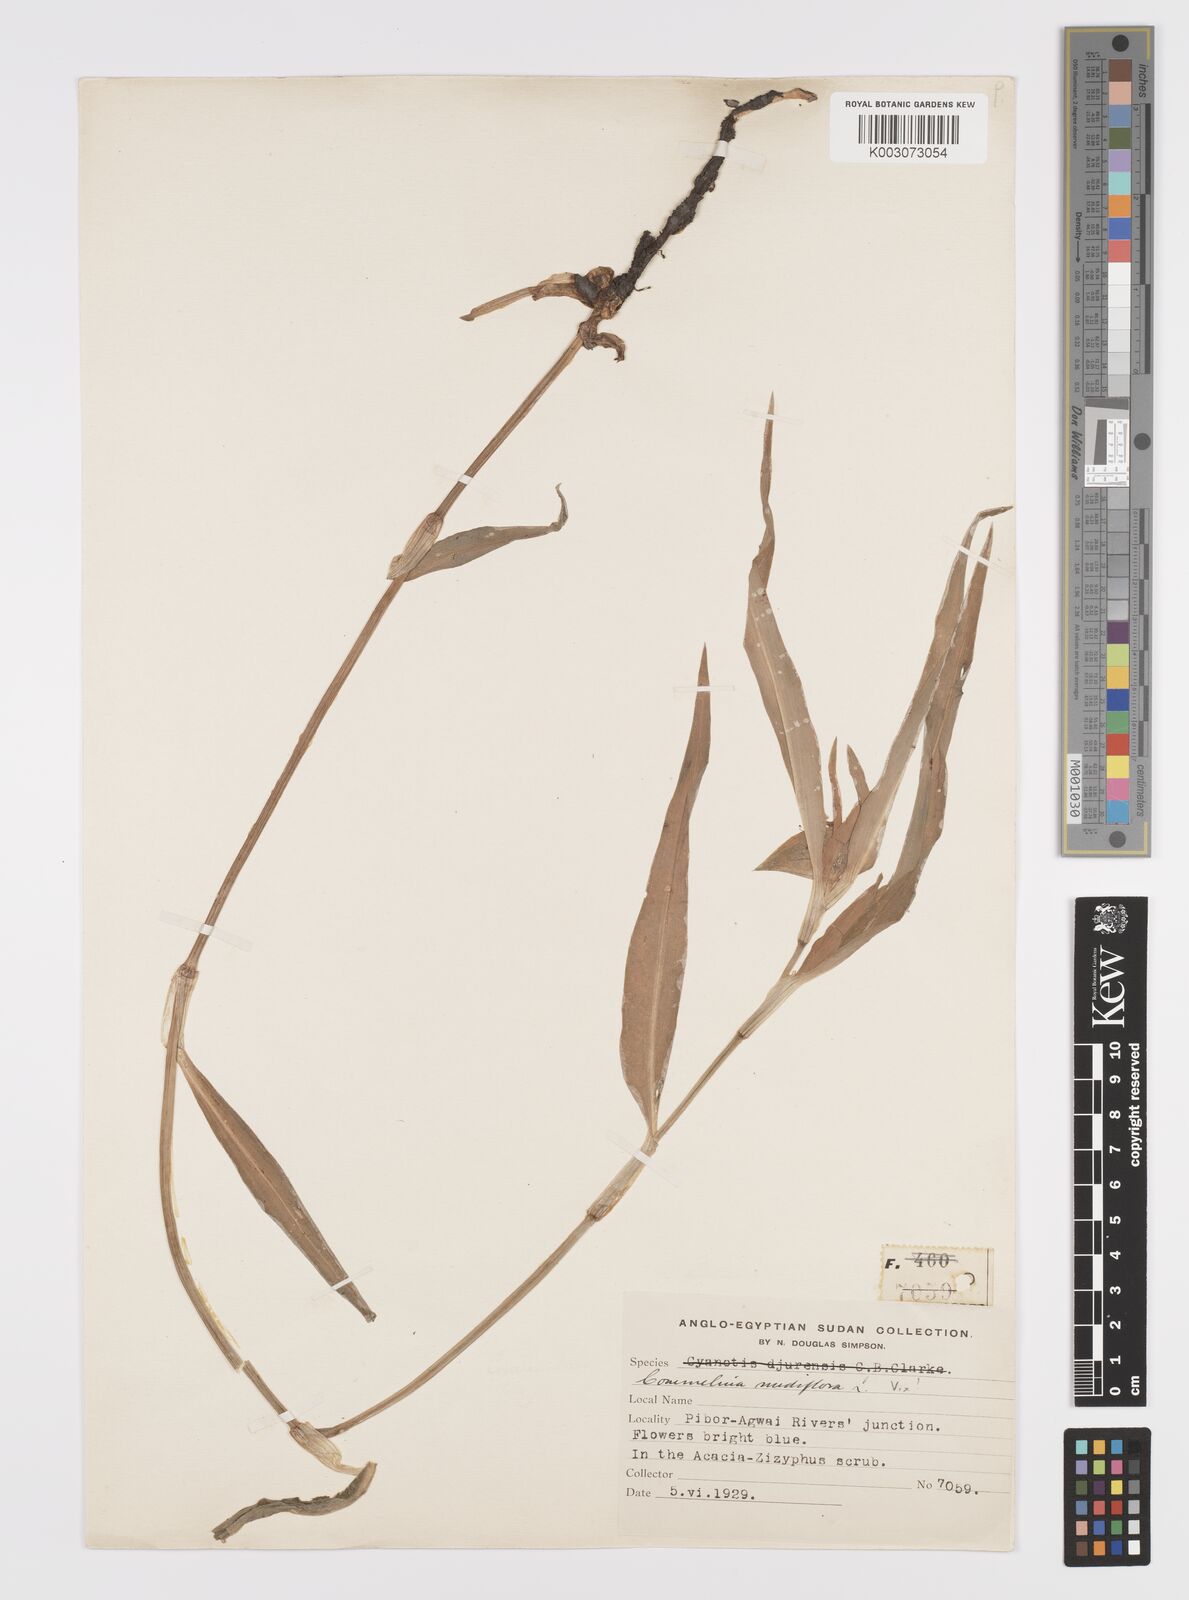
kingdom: Plantae
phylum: Tracheophyta
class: Liliopsida
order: Commelinales
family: Commelinaceae
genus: Commelina
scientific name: Commelina erecta
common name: Blousel blommetjie
